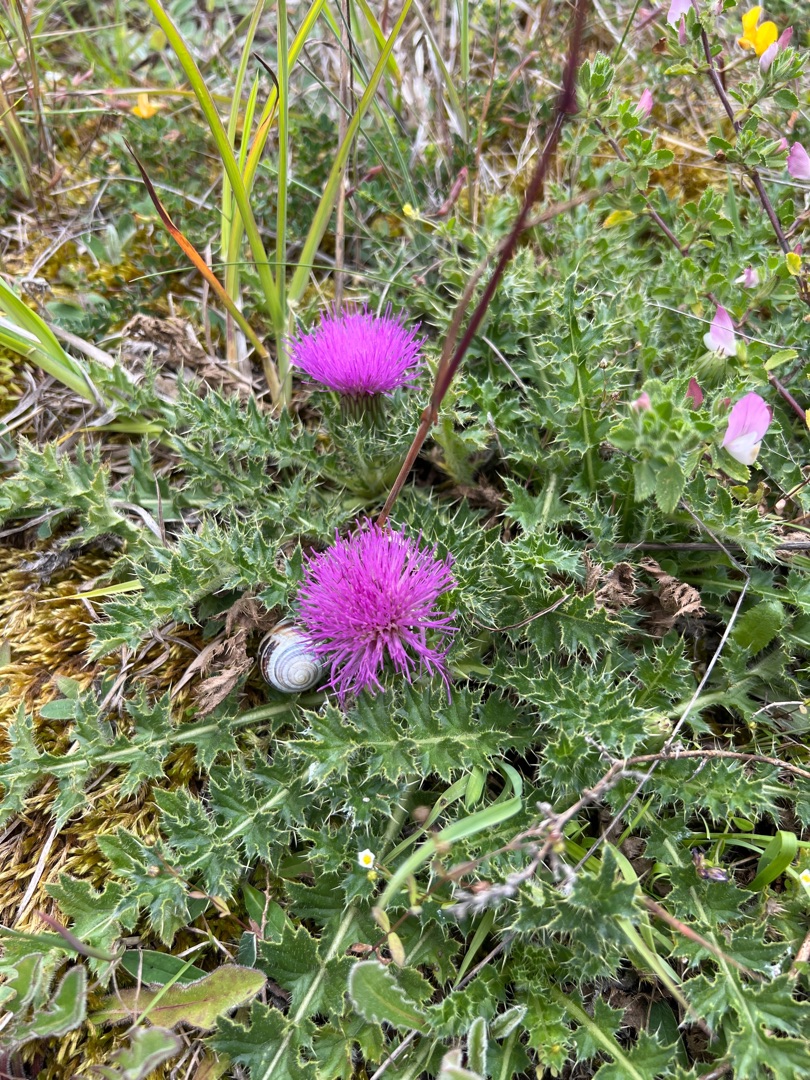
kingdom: Plantae
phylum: Tracheophyta
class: Magnoliopsida
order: Asterales
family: Asteraceae
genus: Cirsium
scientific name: Cirsium acaule
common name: Lav tidsel
